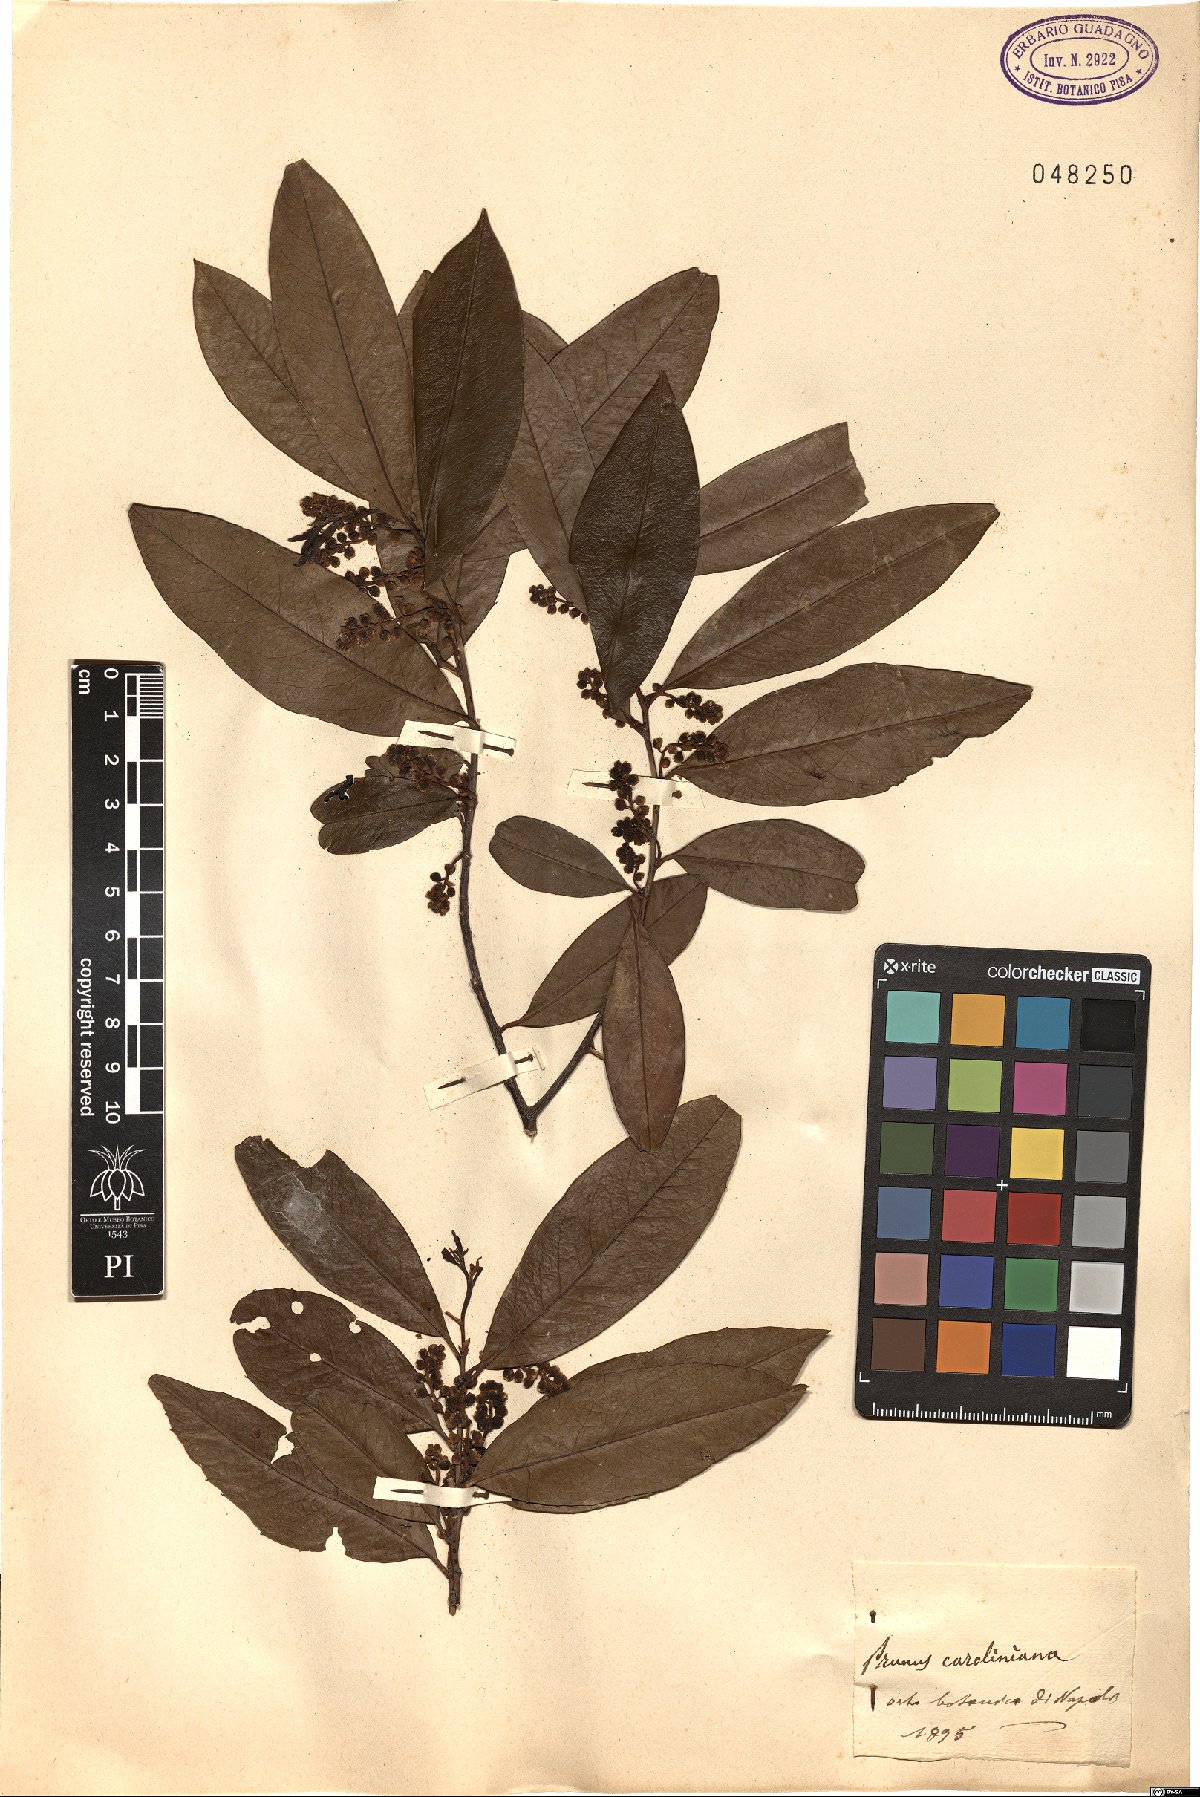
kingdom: Plantae
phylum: Tracheophyta
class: Magnoliopsida
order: Rosales
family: Rosaceae
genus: Prunus
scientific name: Prunus caroliniana
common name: Carolina laurel cherry
